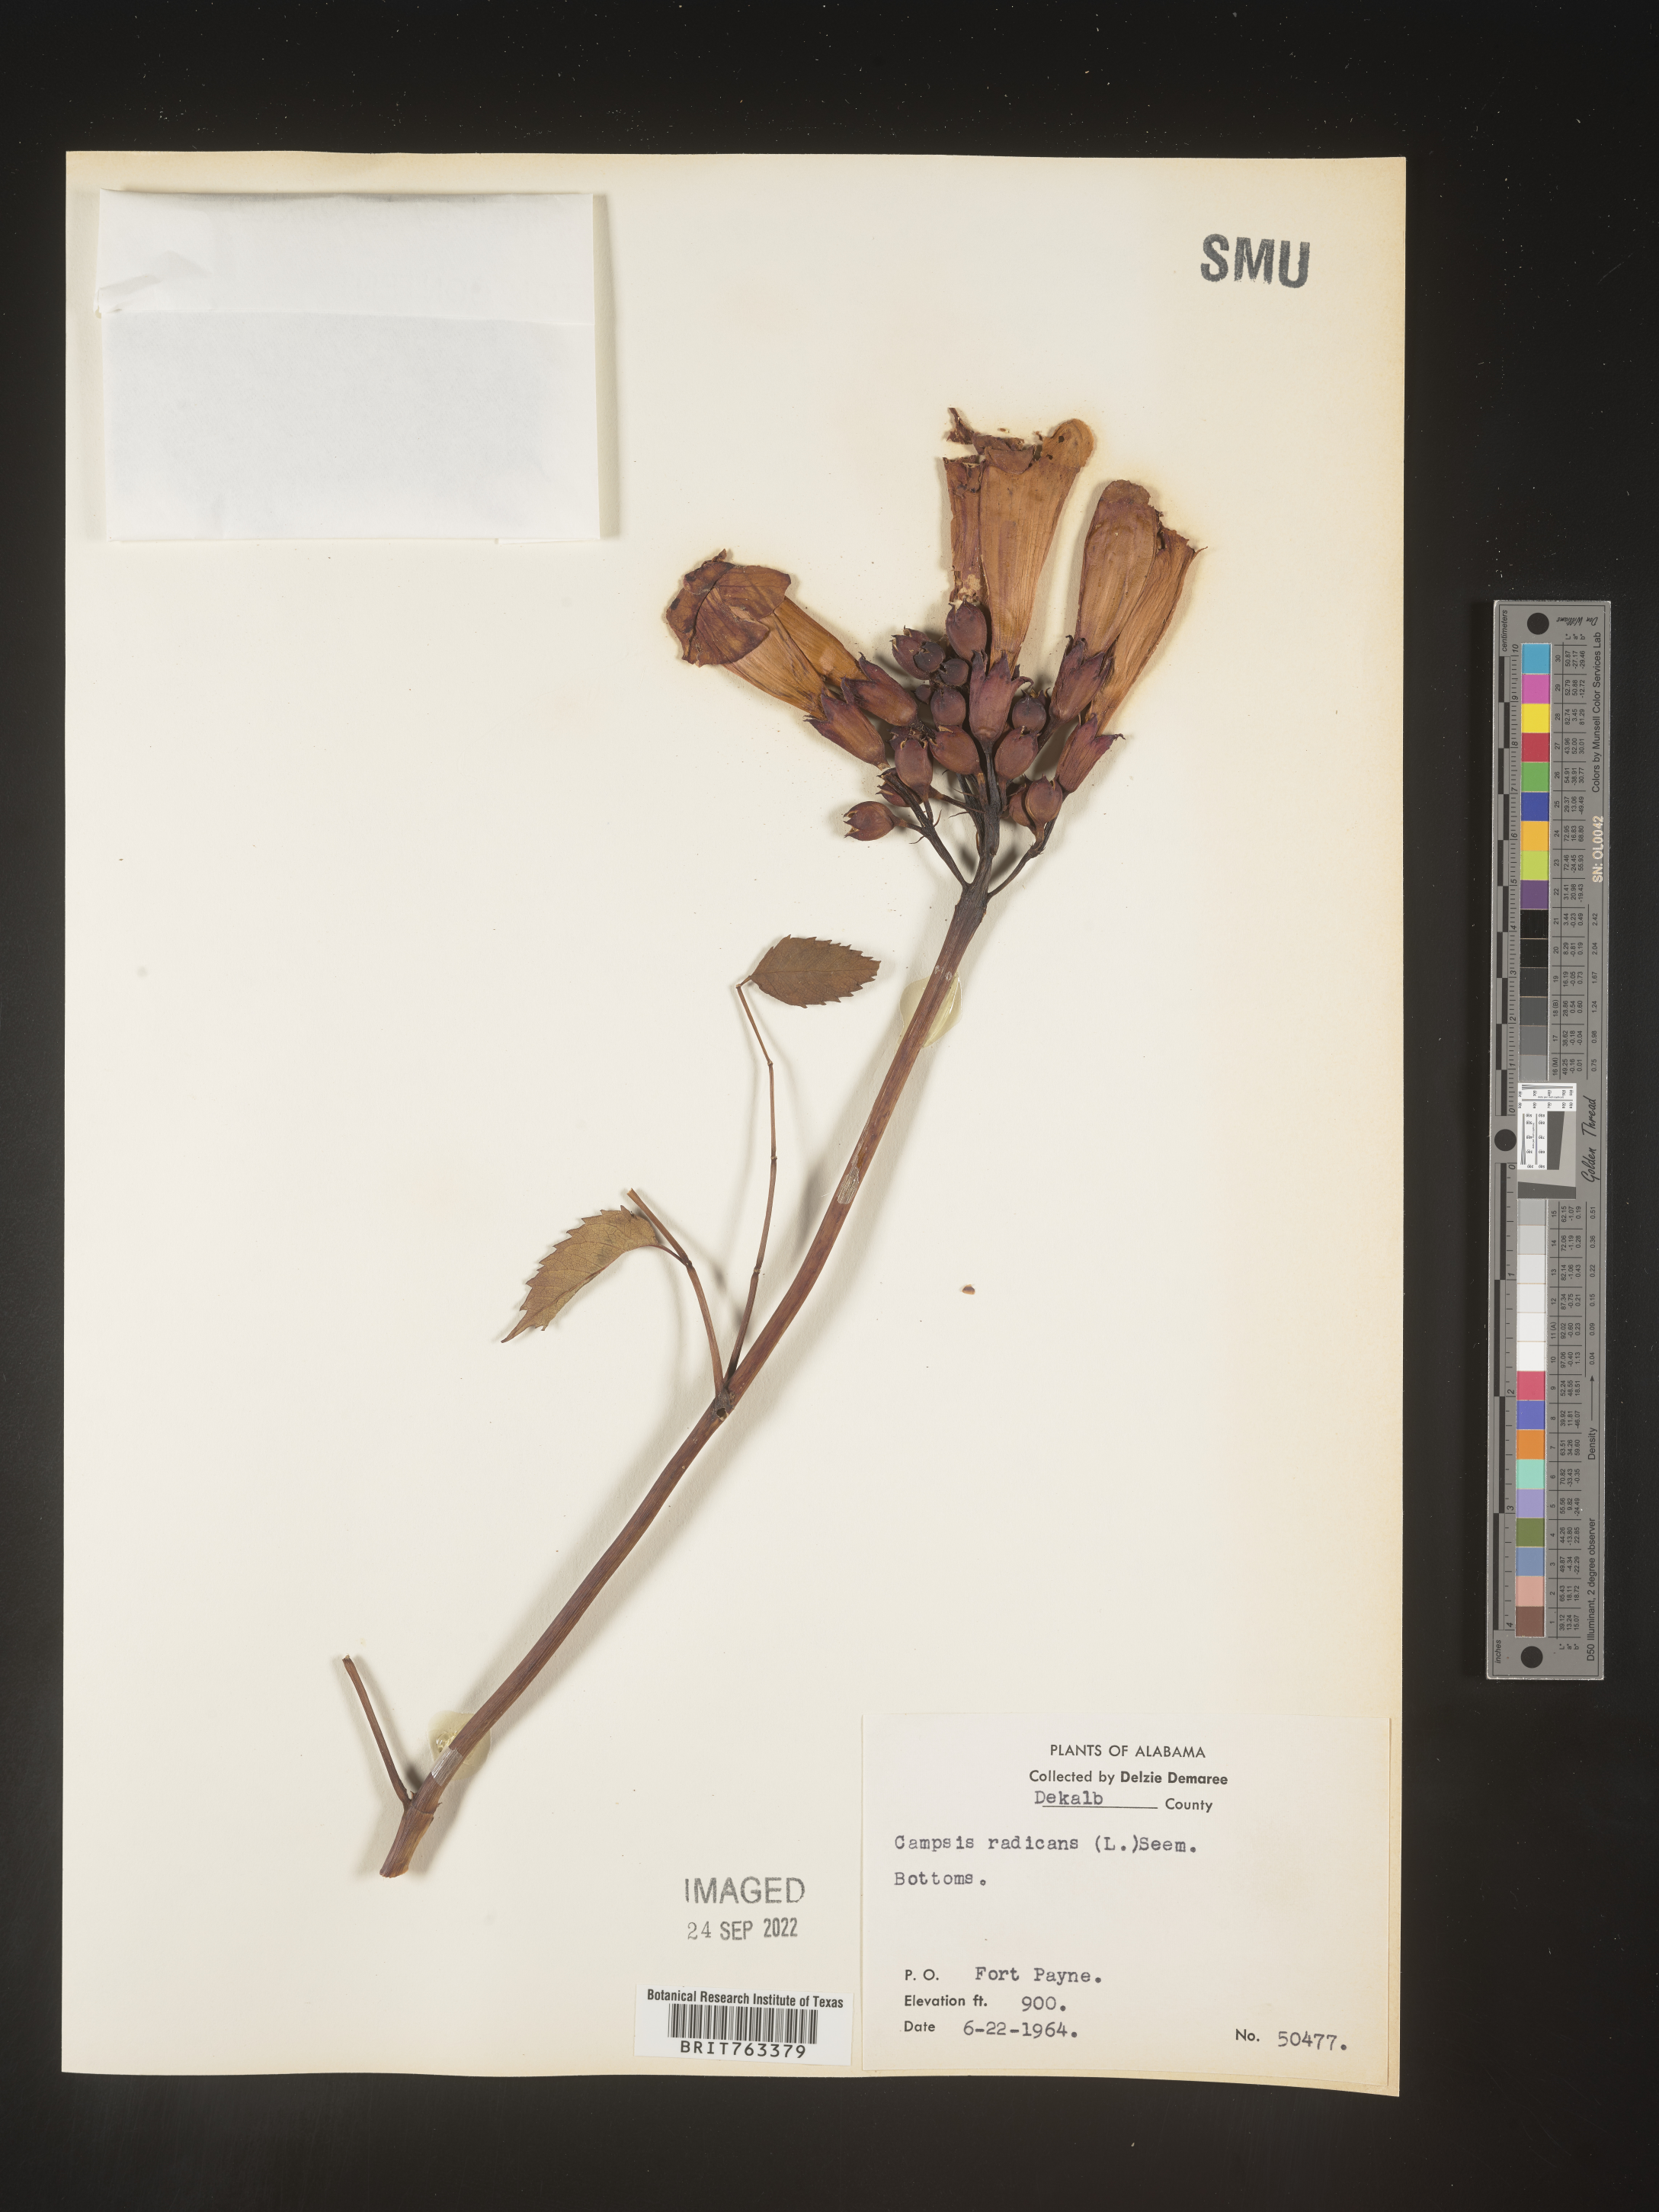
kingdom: Plantae
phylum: Tracheophyta
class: Magnoliopsida
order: Lamiales
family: Bignoniaceae
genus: Campsis
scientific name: Campsis radicans
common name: Trumpet-creeper
